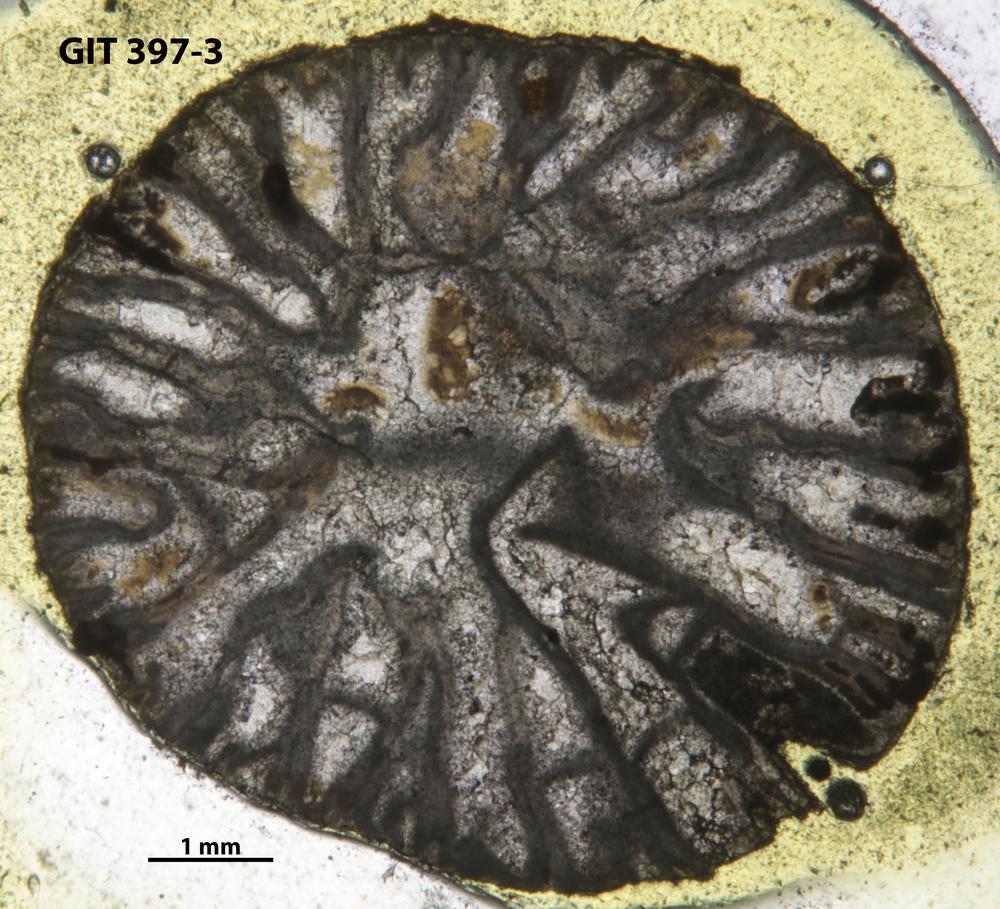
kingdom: Animalia
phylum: Cnidaria
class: Anthozoa
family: Streptelasmatidae
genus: Brachyelasma
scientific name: Brachyelasma Streptelasma estonica
